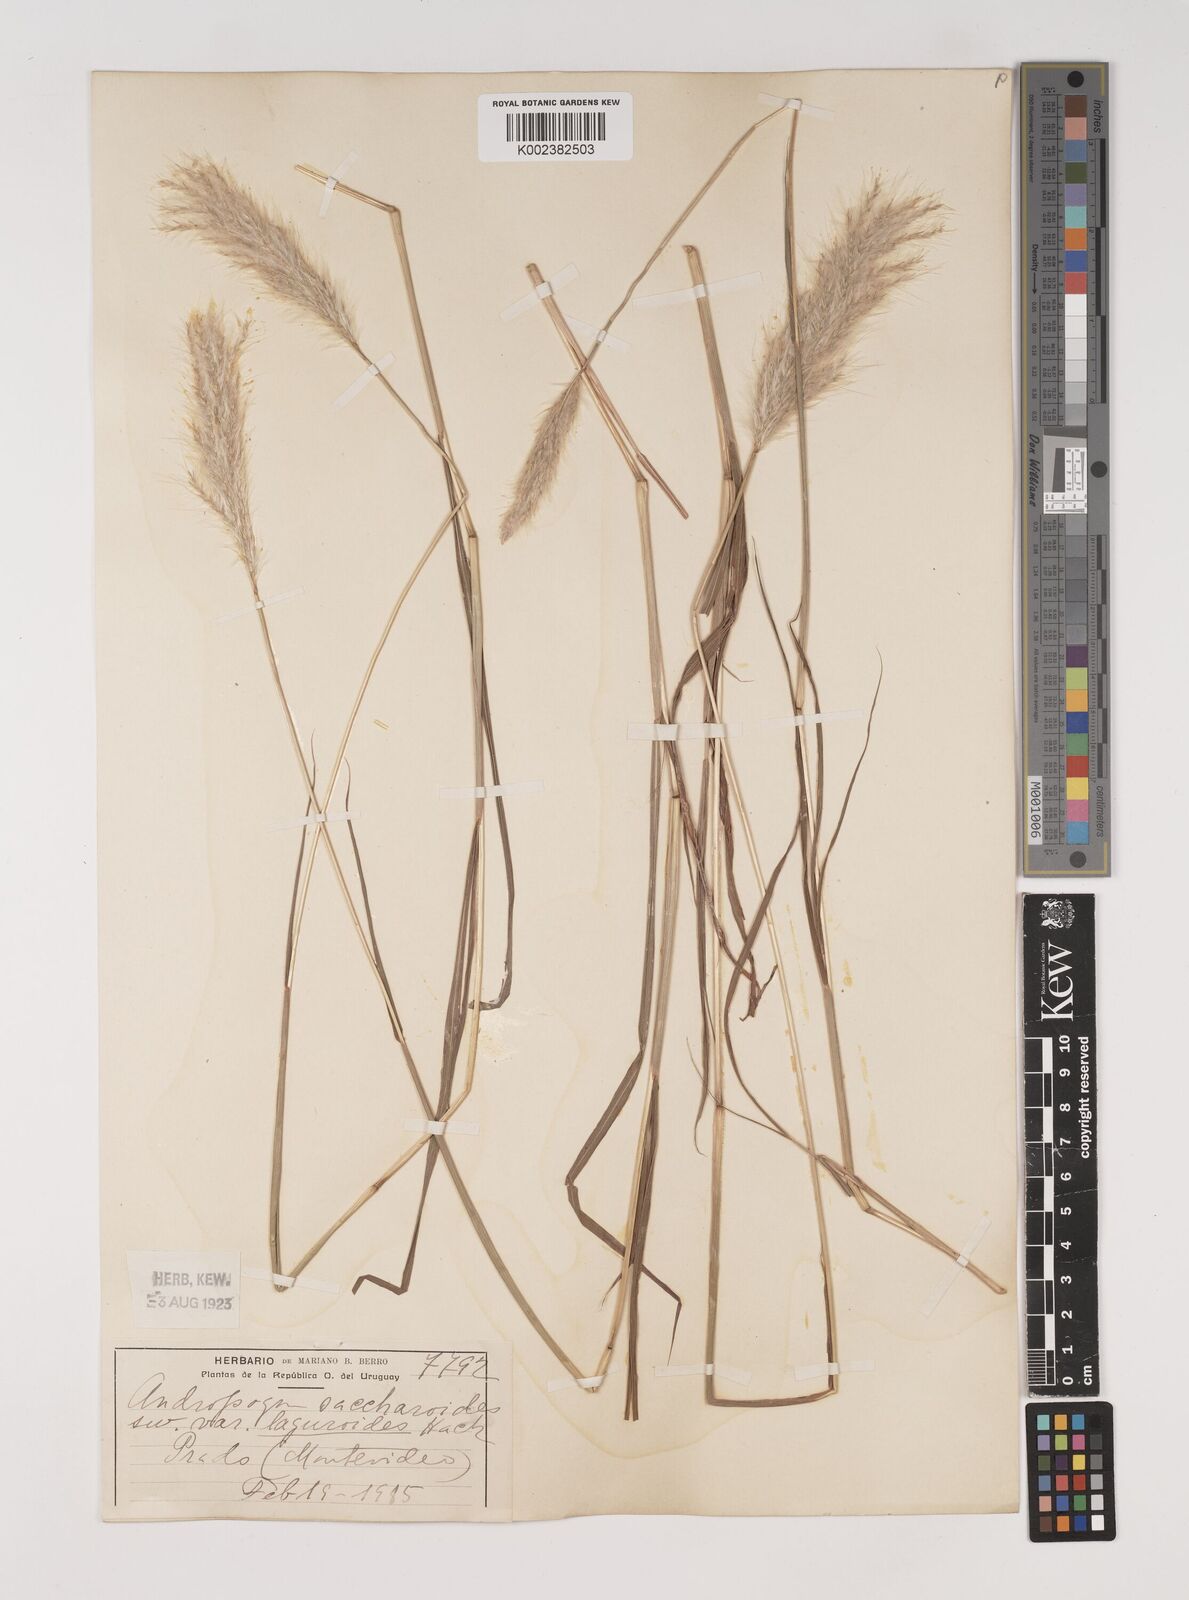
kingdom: Plantae
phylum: Tracheophyta
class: Liliopsida
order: Poales
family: Poaceae
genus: Bothriochloa
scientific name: Bothriochloa laguroides
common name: Silver bluestem
